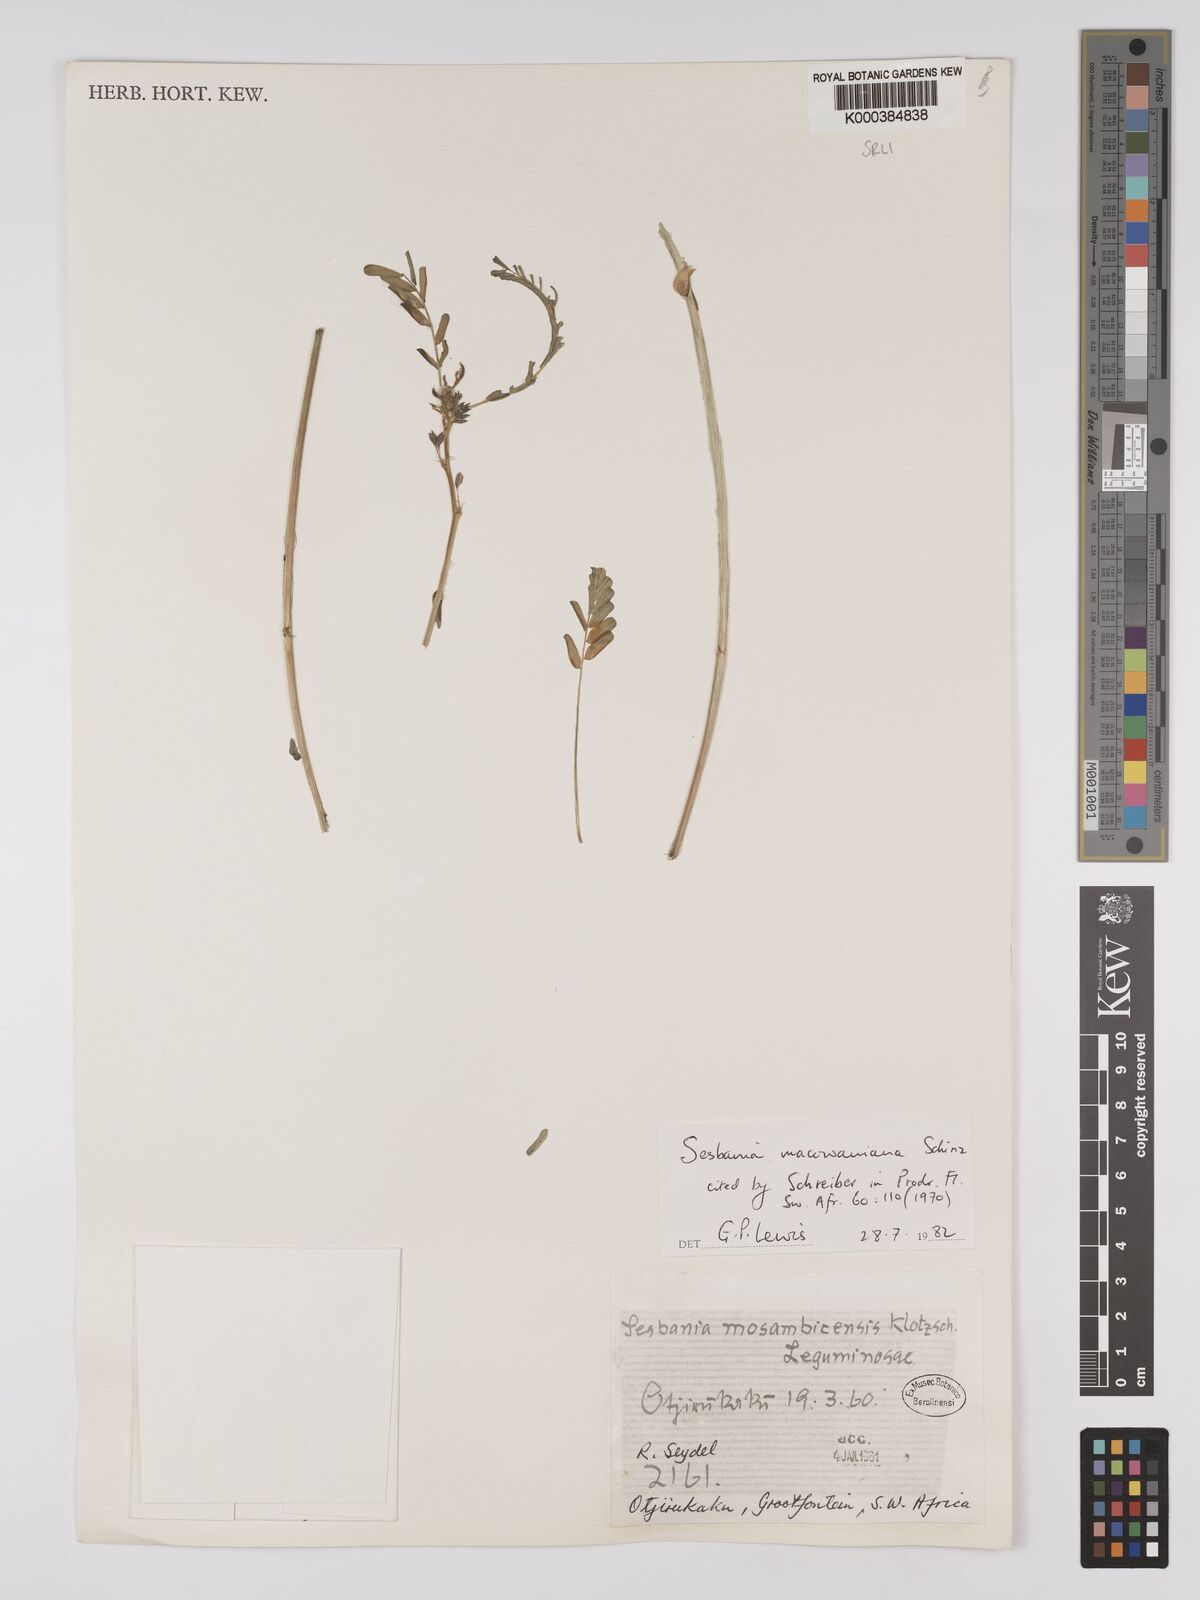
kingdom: Plantae
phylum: Tracheophyta
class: Magnoliopsida
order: Fabales
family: Fabaceae
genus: Sesbania
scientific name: Sesbania macowaniana
